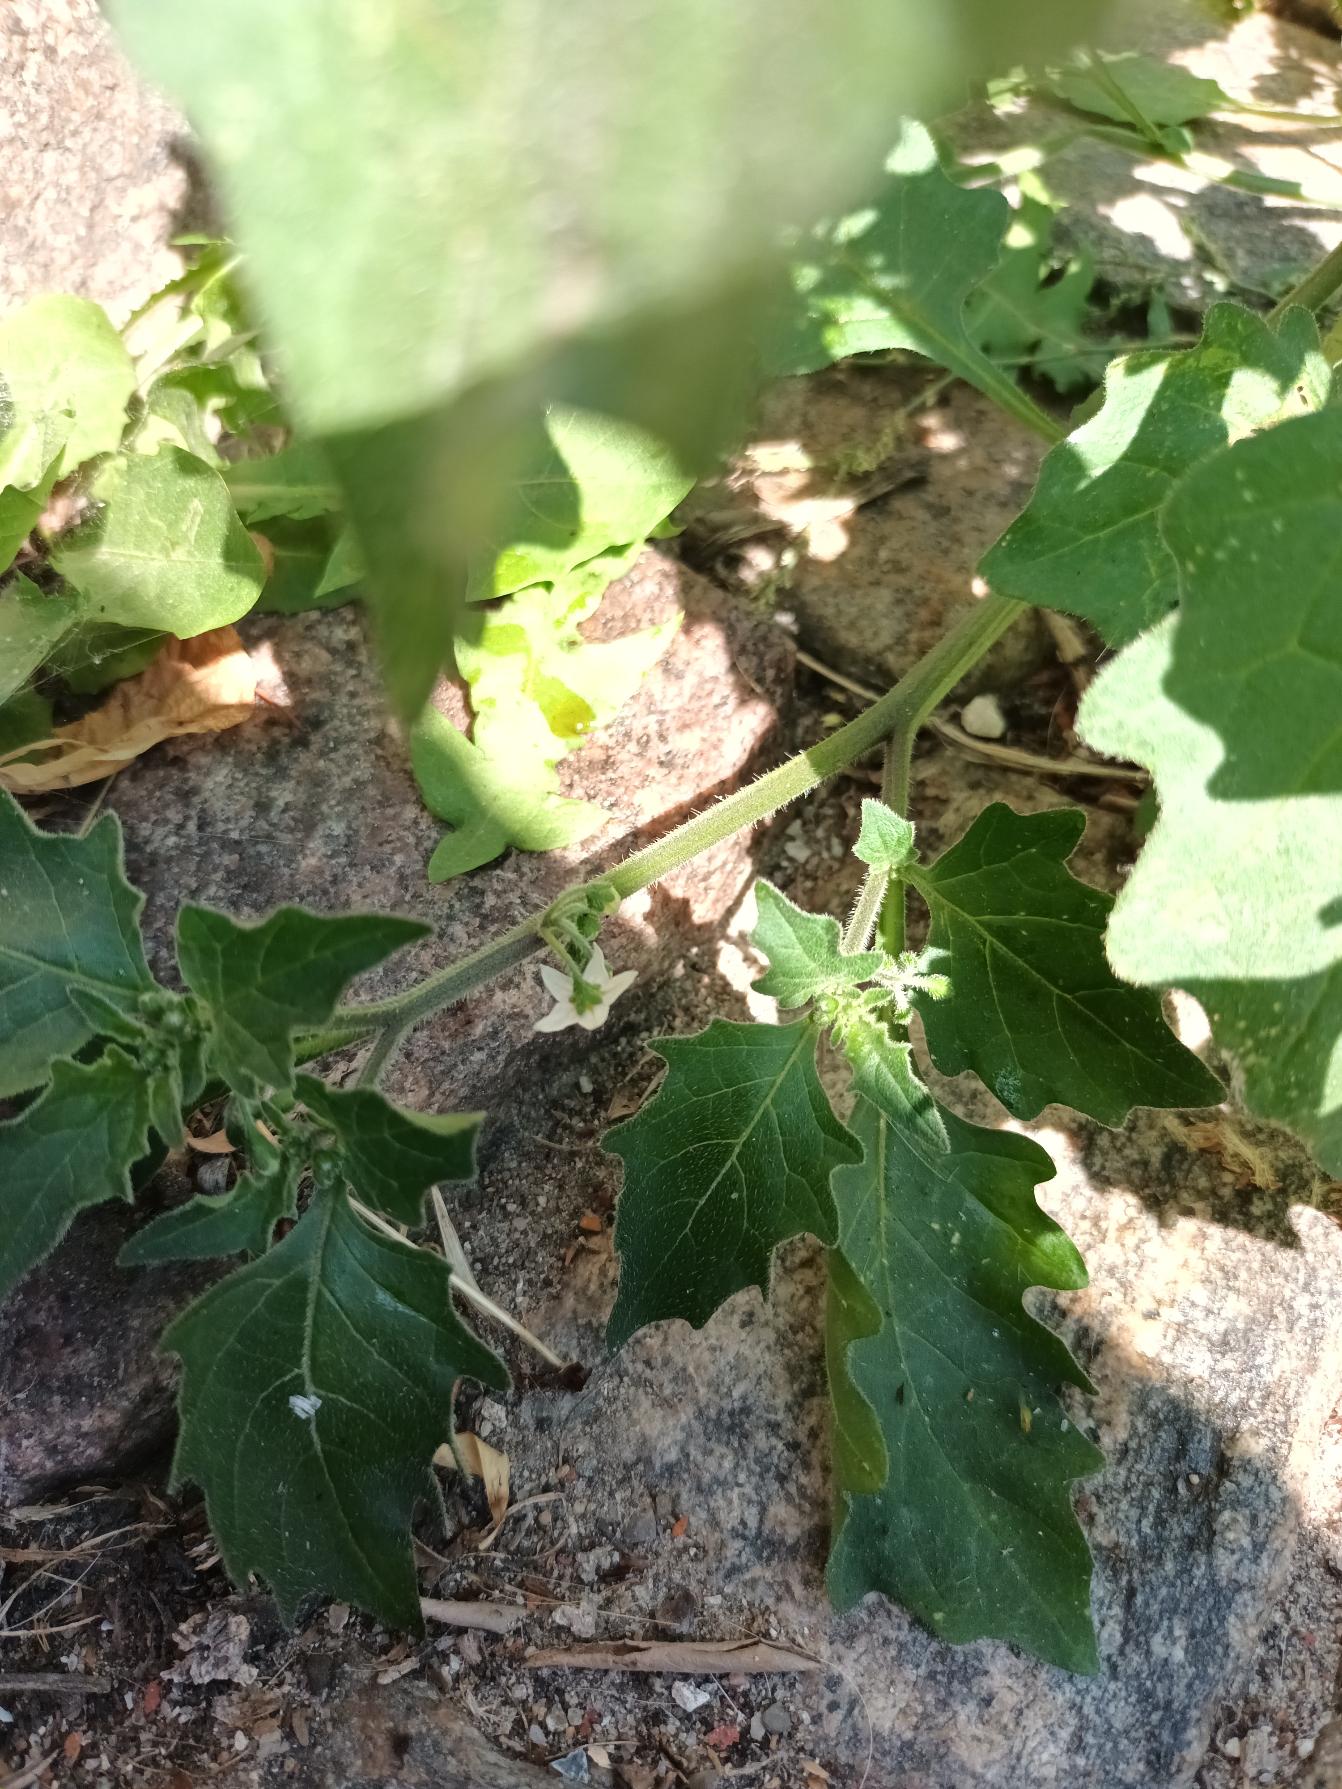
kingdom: Plantae
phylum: Tracheophyta
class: Magnoliopsida
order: Solanales
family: Solanaceae
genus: Solanum
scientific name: Solanum decipiens
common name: Kirtel-natskygge
